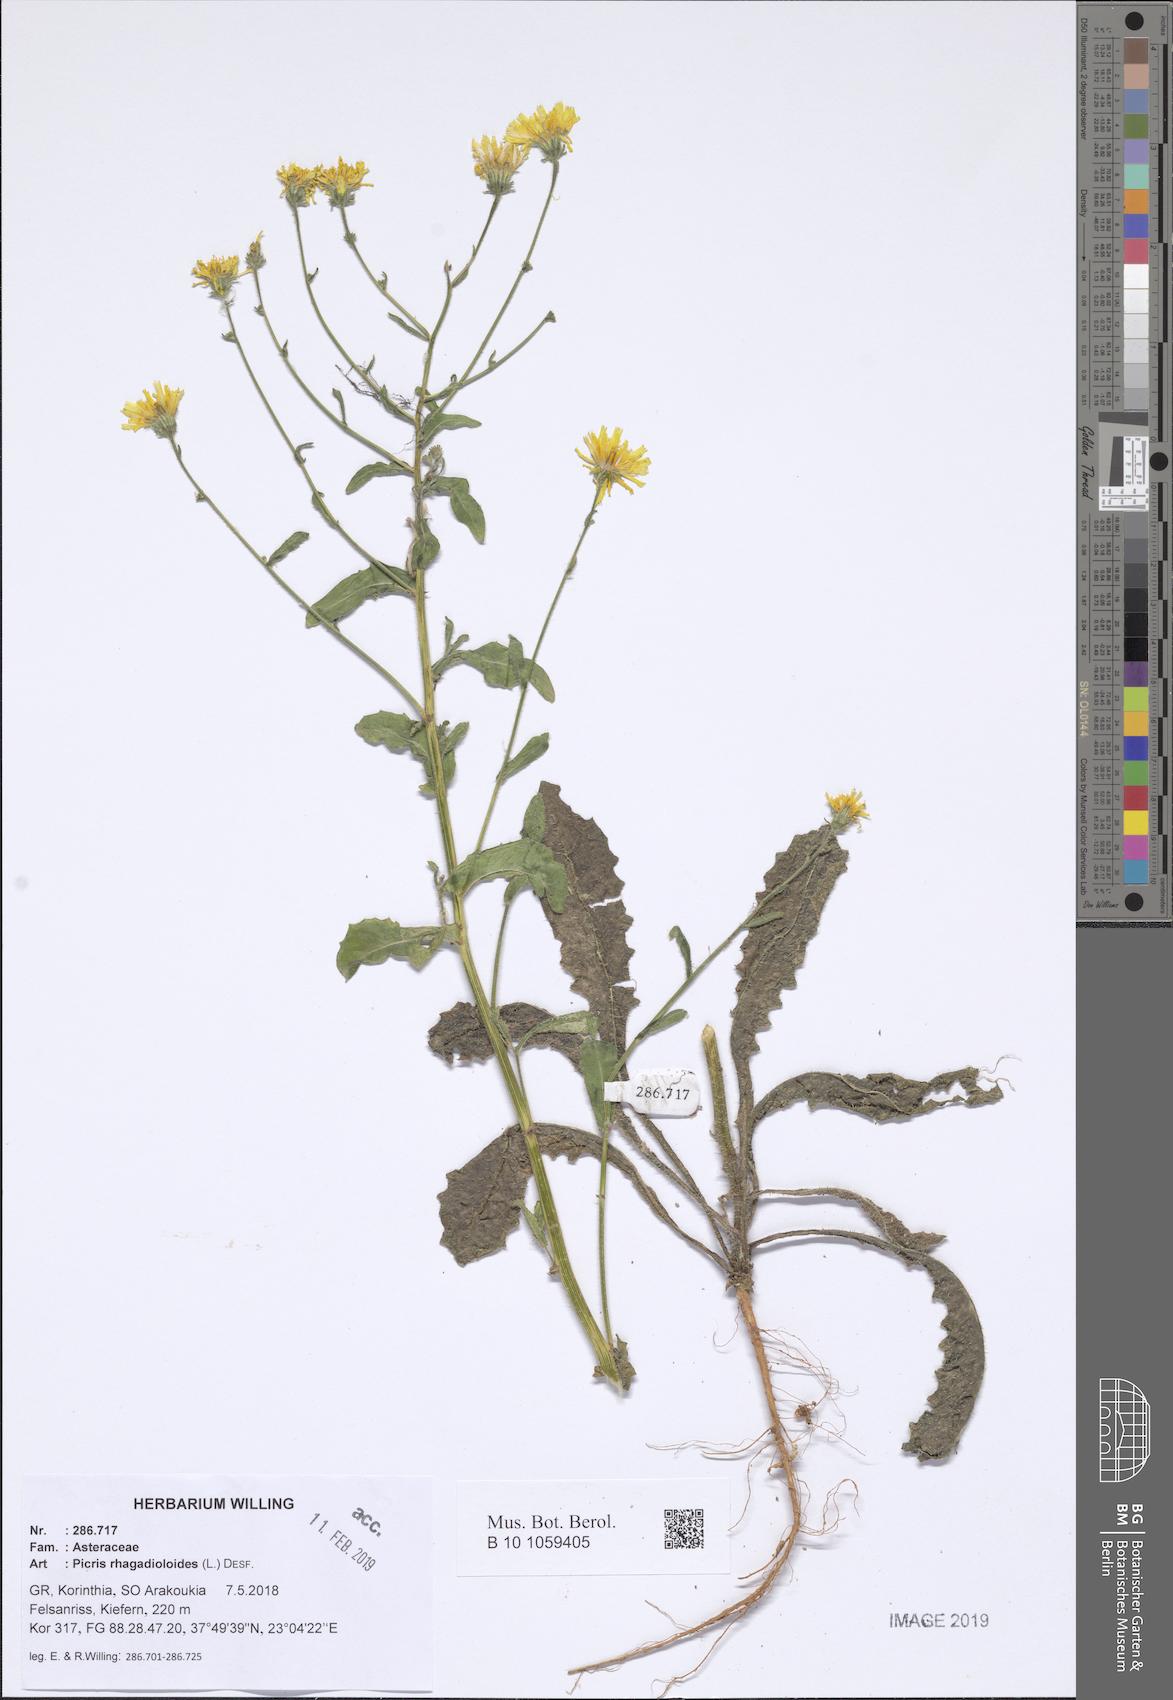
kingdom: Plantae
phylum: Tracheophyta
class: Magnoliopsida
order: Asterales
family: Asteraceae
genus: Picris
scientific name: Picris rhagadioloides
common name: Oxtongue
